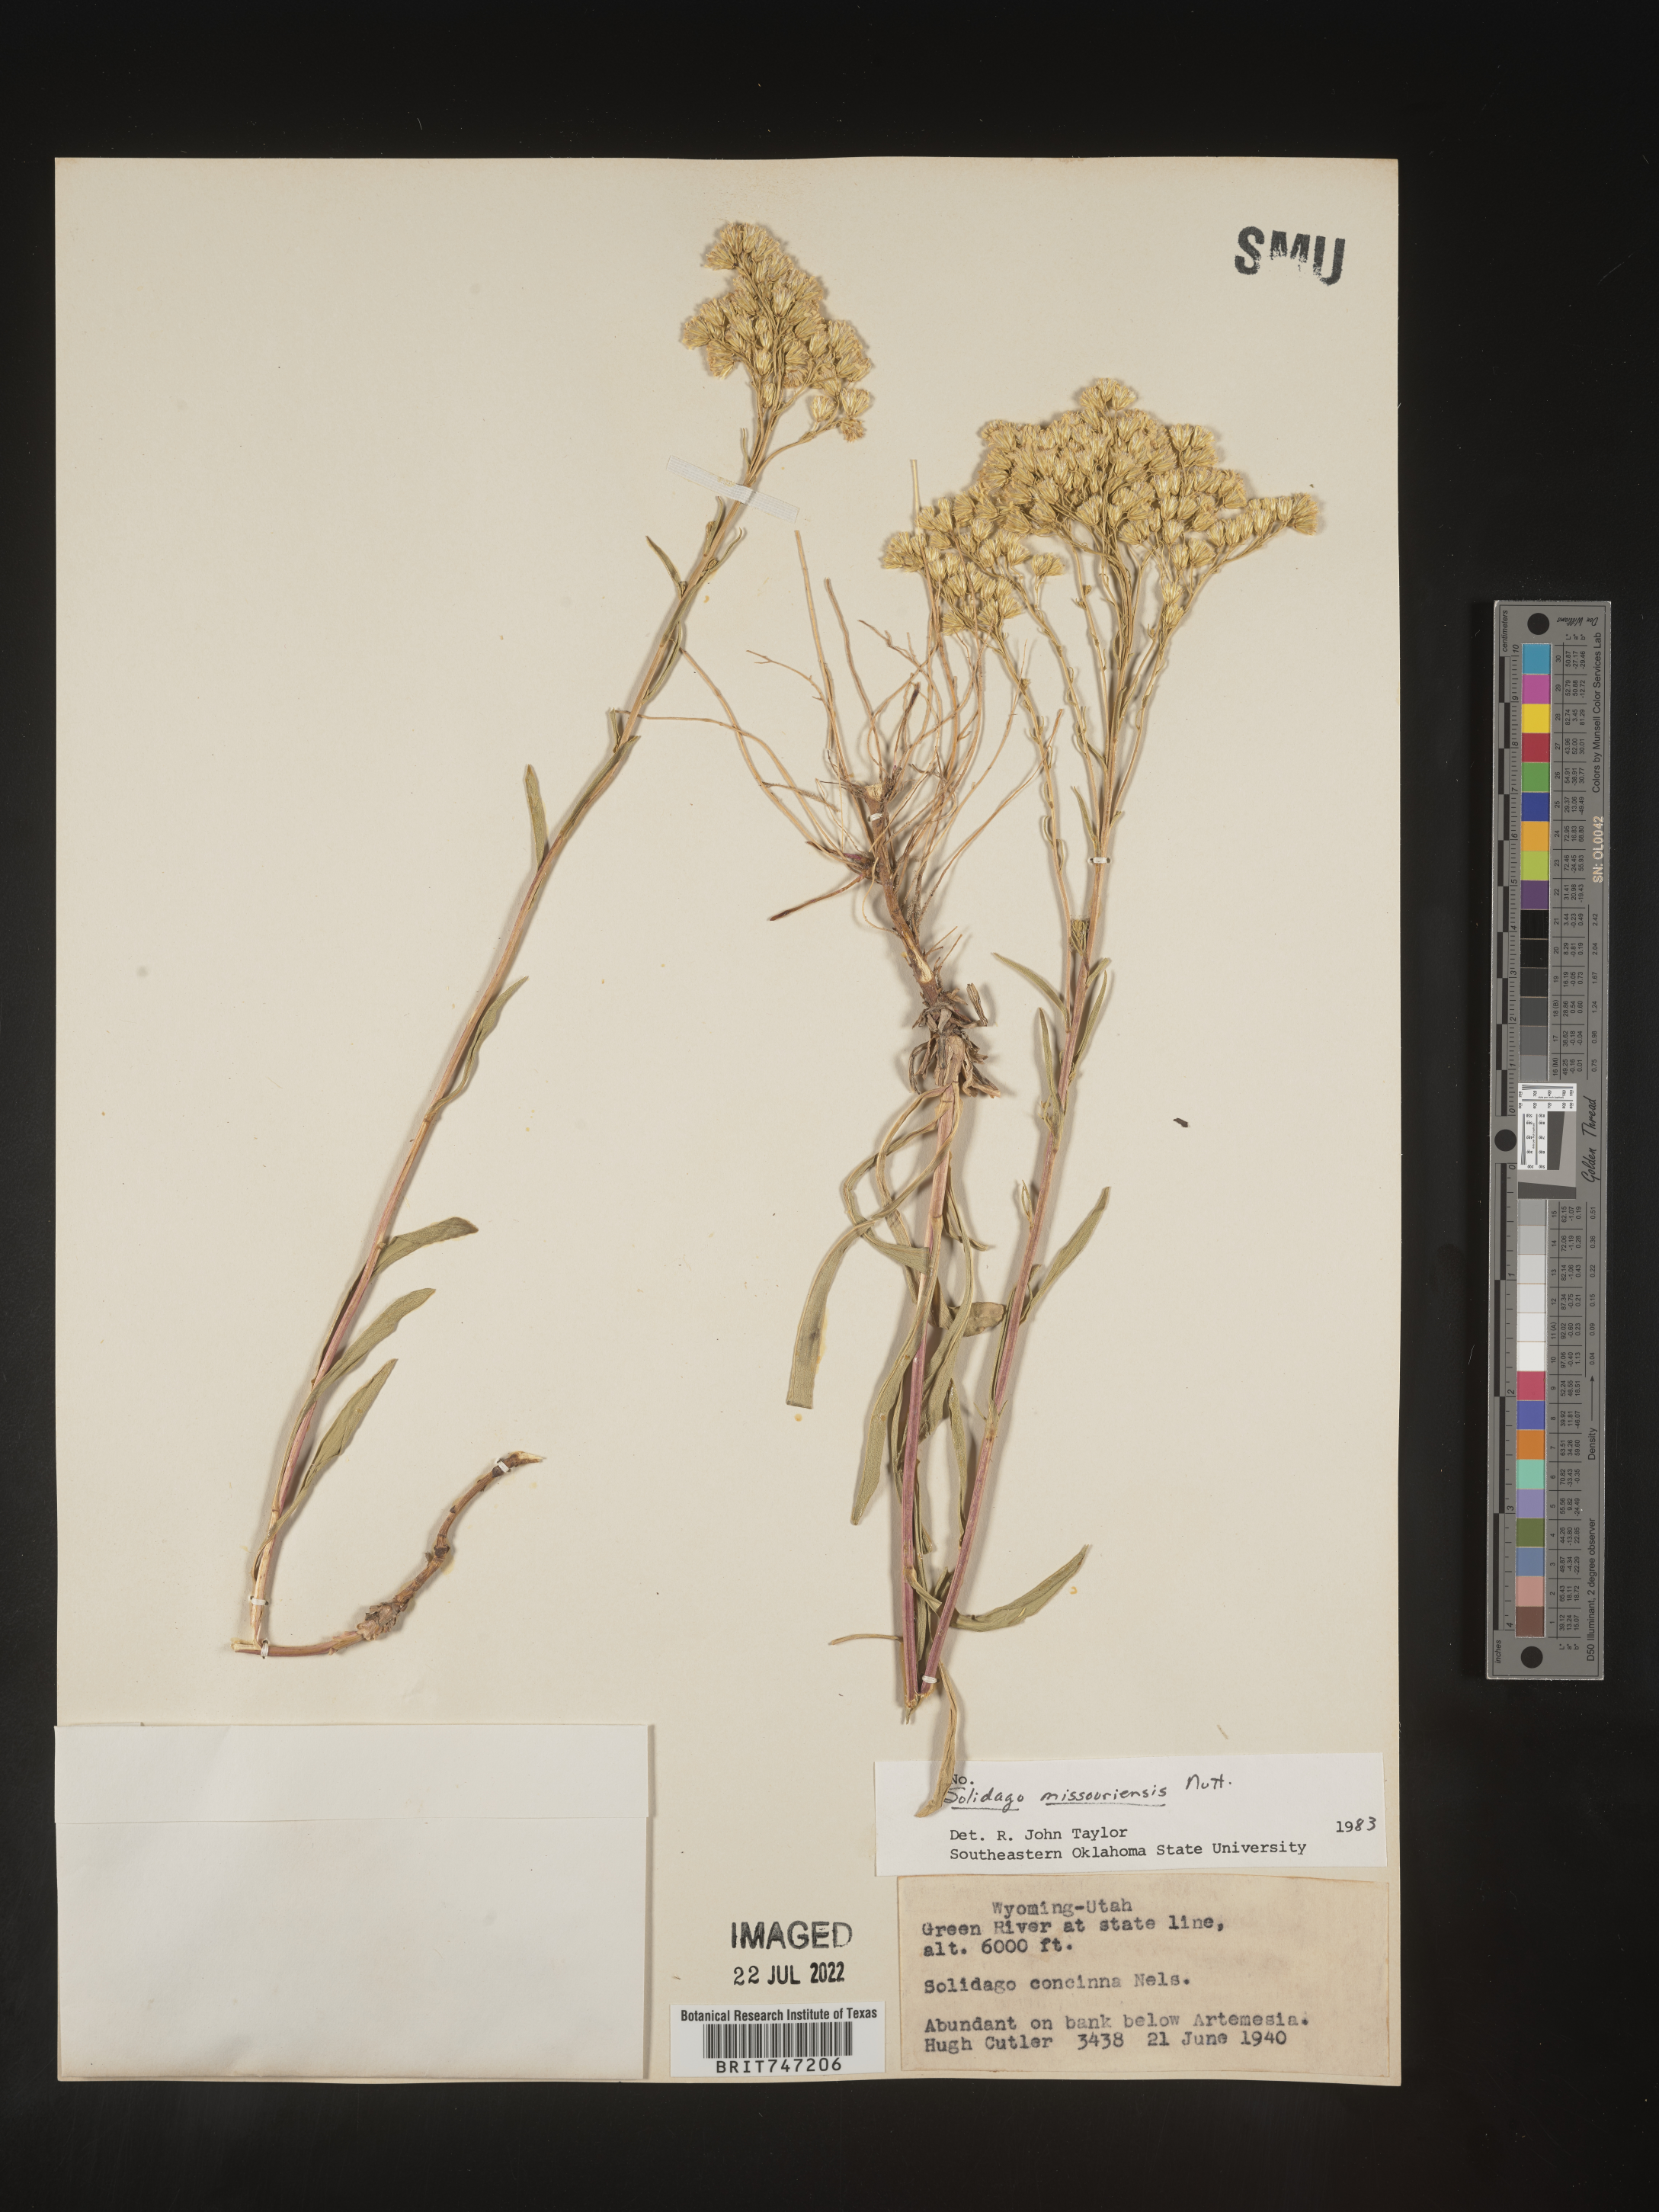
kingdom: Plantae
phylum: Tracheophyta
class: Magnoliopsida
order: Asterales
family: Asteraceae
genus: Solidago
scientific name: Solidago missouriensis
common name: Prairie goldenrod
